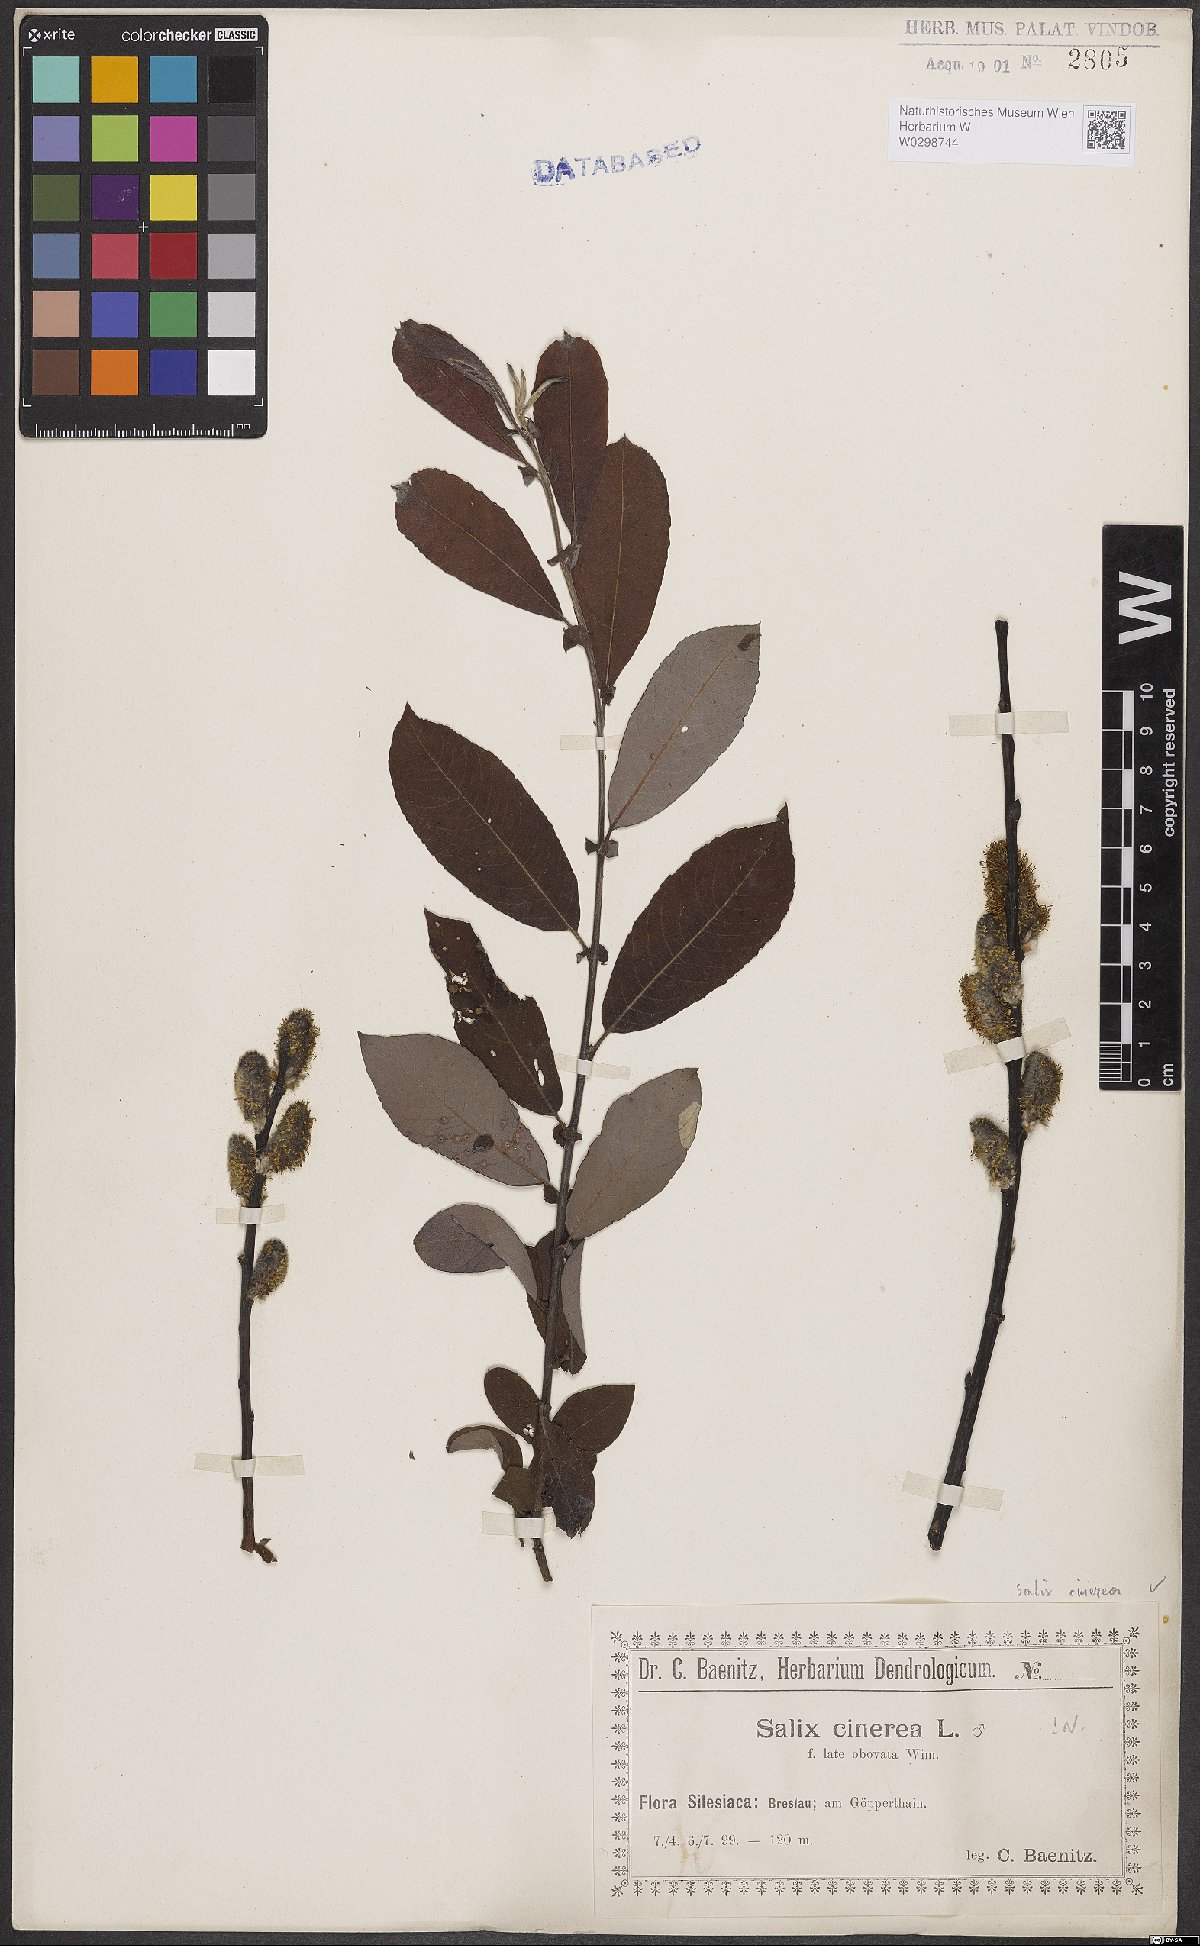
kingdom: Plantae
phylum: Tracheophyta
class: Magnoliopsida
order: Malpighiales
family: Salicaceae
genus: Salix
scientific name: Salix cinerea
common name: Common sallow
